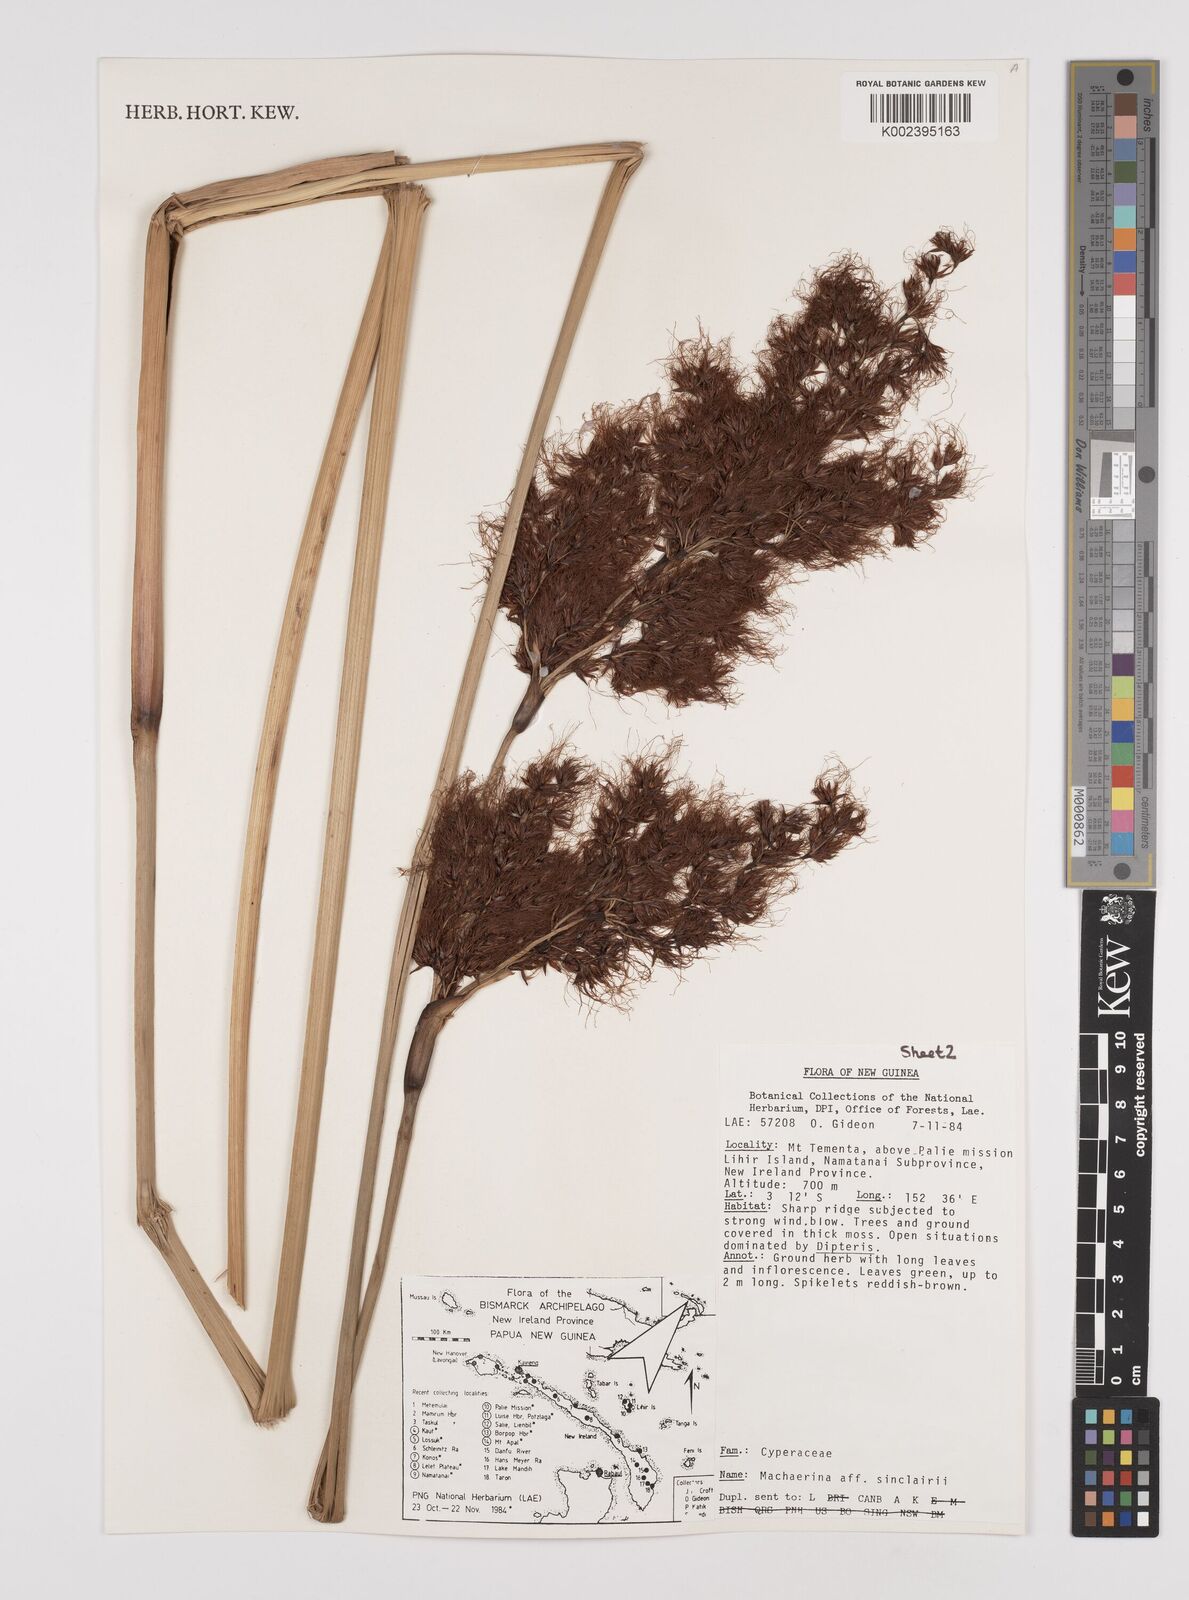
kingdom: Plantae
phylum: Tracheophyta
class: Liliopsida
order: Poales
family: Cyperaceae
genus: Machaerina
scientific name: Machaerina sinclairii
